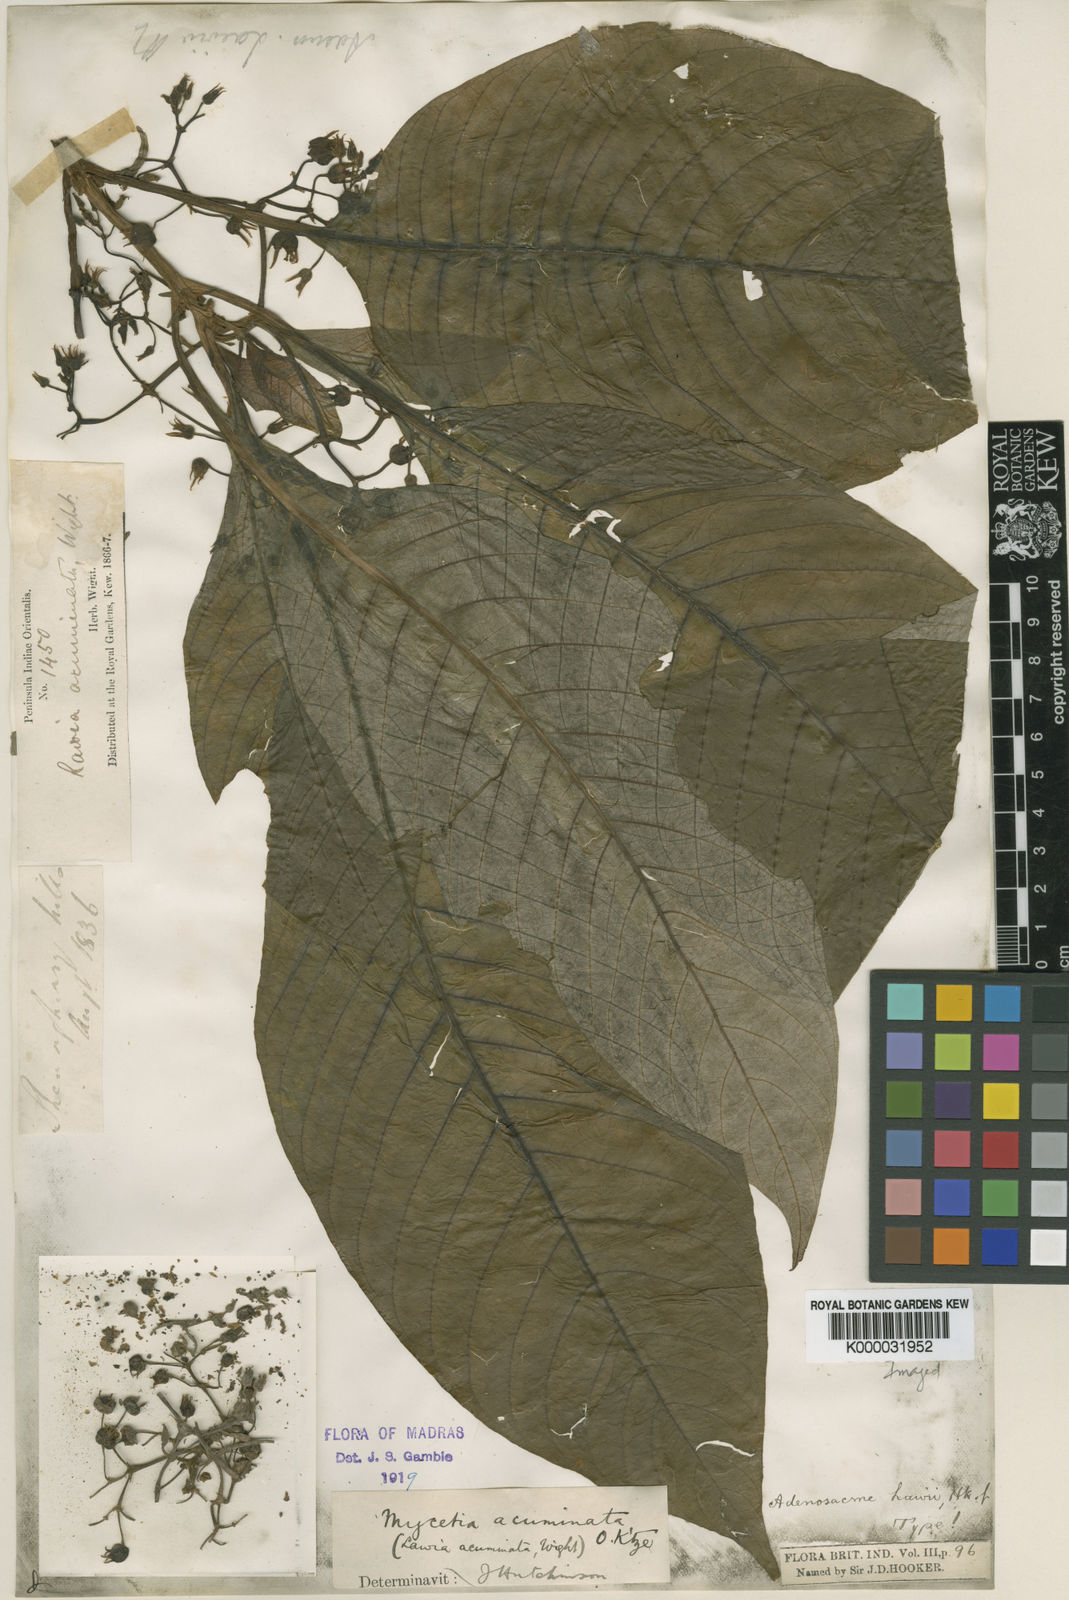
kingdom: Plantae
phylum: Tracheophyta
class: Magnoliopsida
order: Gentianales
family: Rubiaceae
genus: Mycetia
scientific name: Mycetia acuminata
